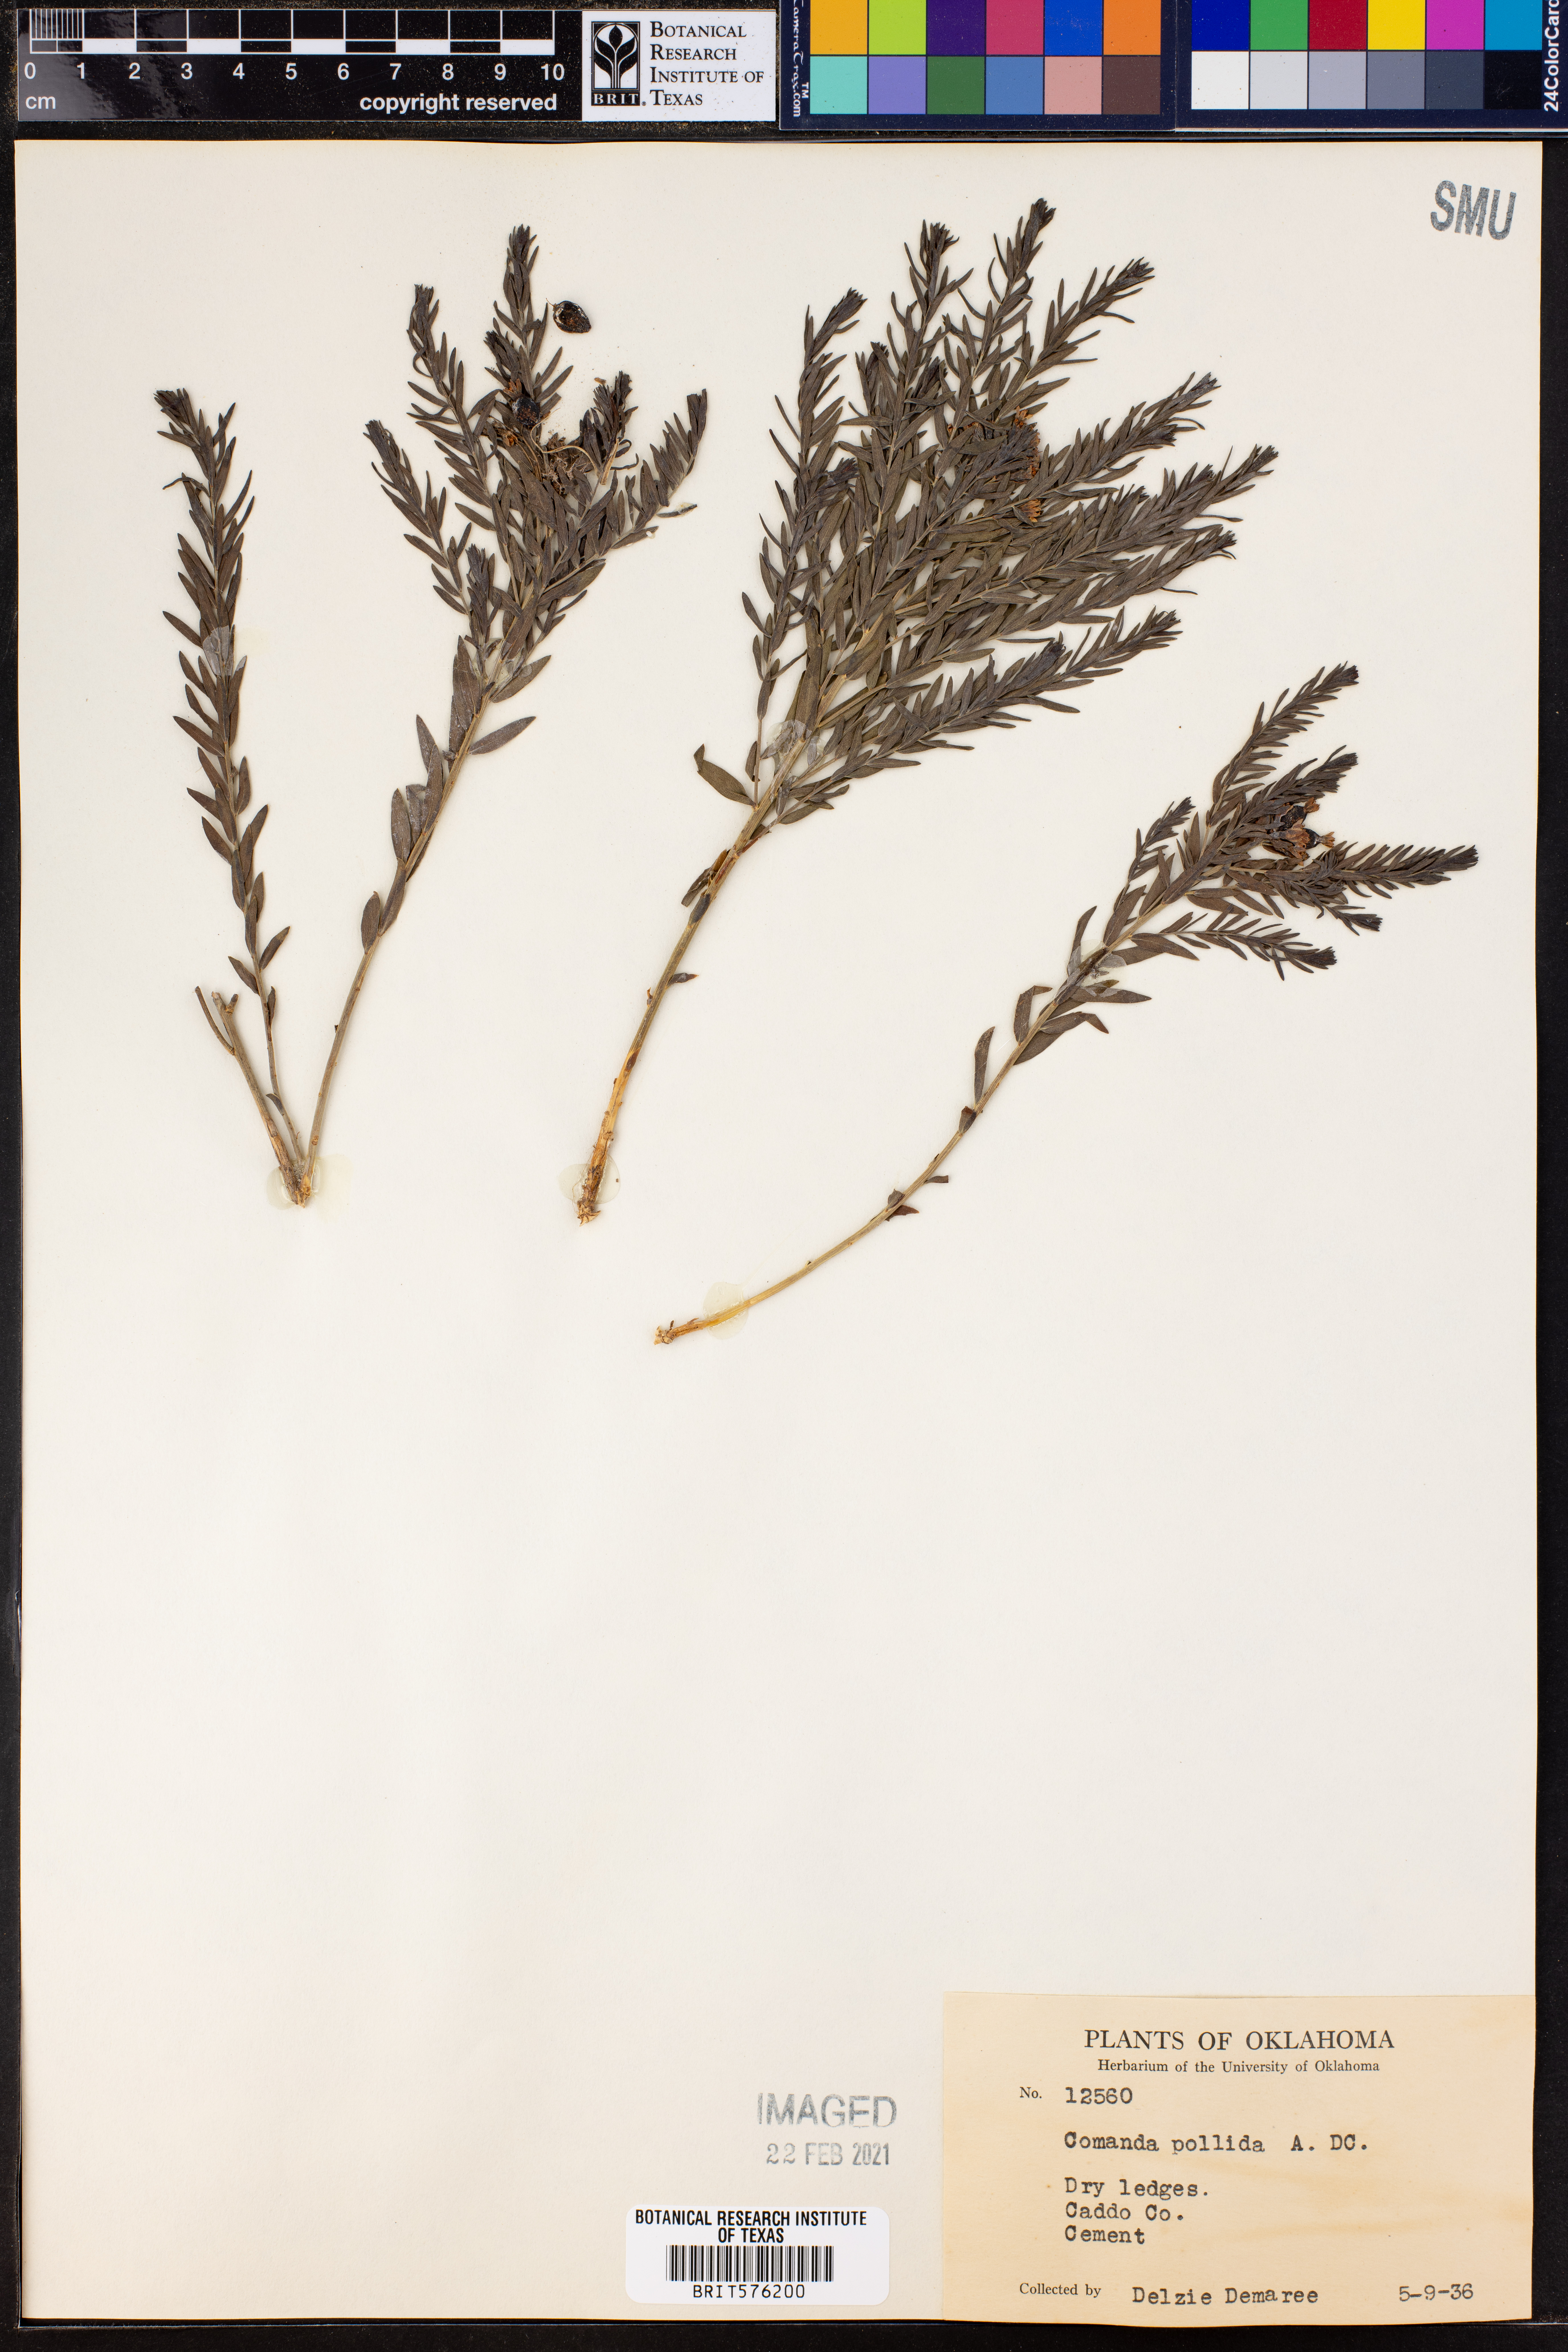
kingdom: Plantae
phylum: Tracheophyta
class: Magnoliopsida
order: Santalales
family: Comandraceae
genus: Comandra
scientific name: Comandra umbellata
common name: Bastard toadflax
